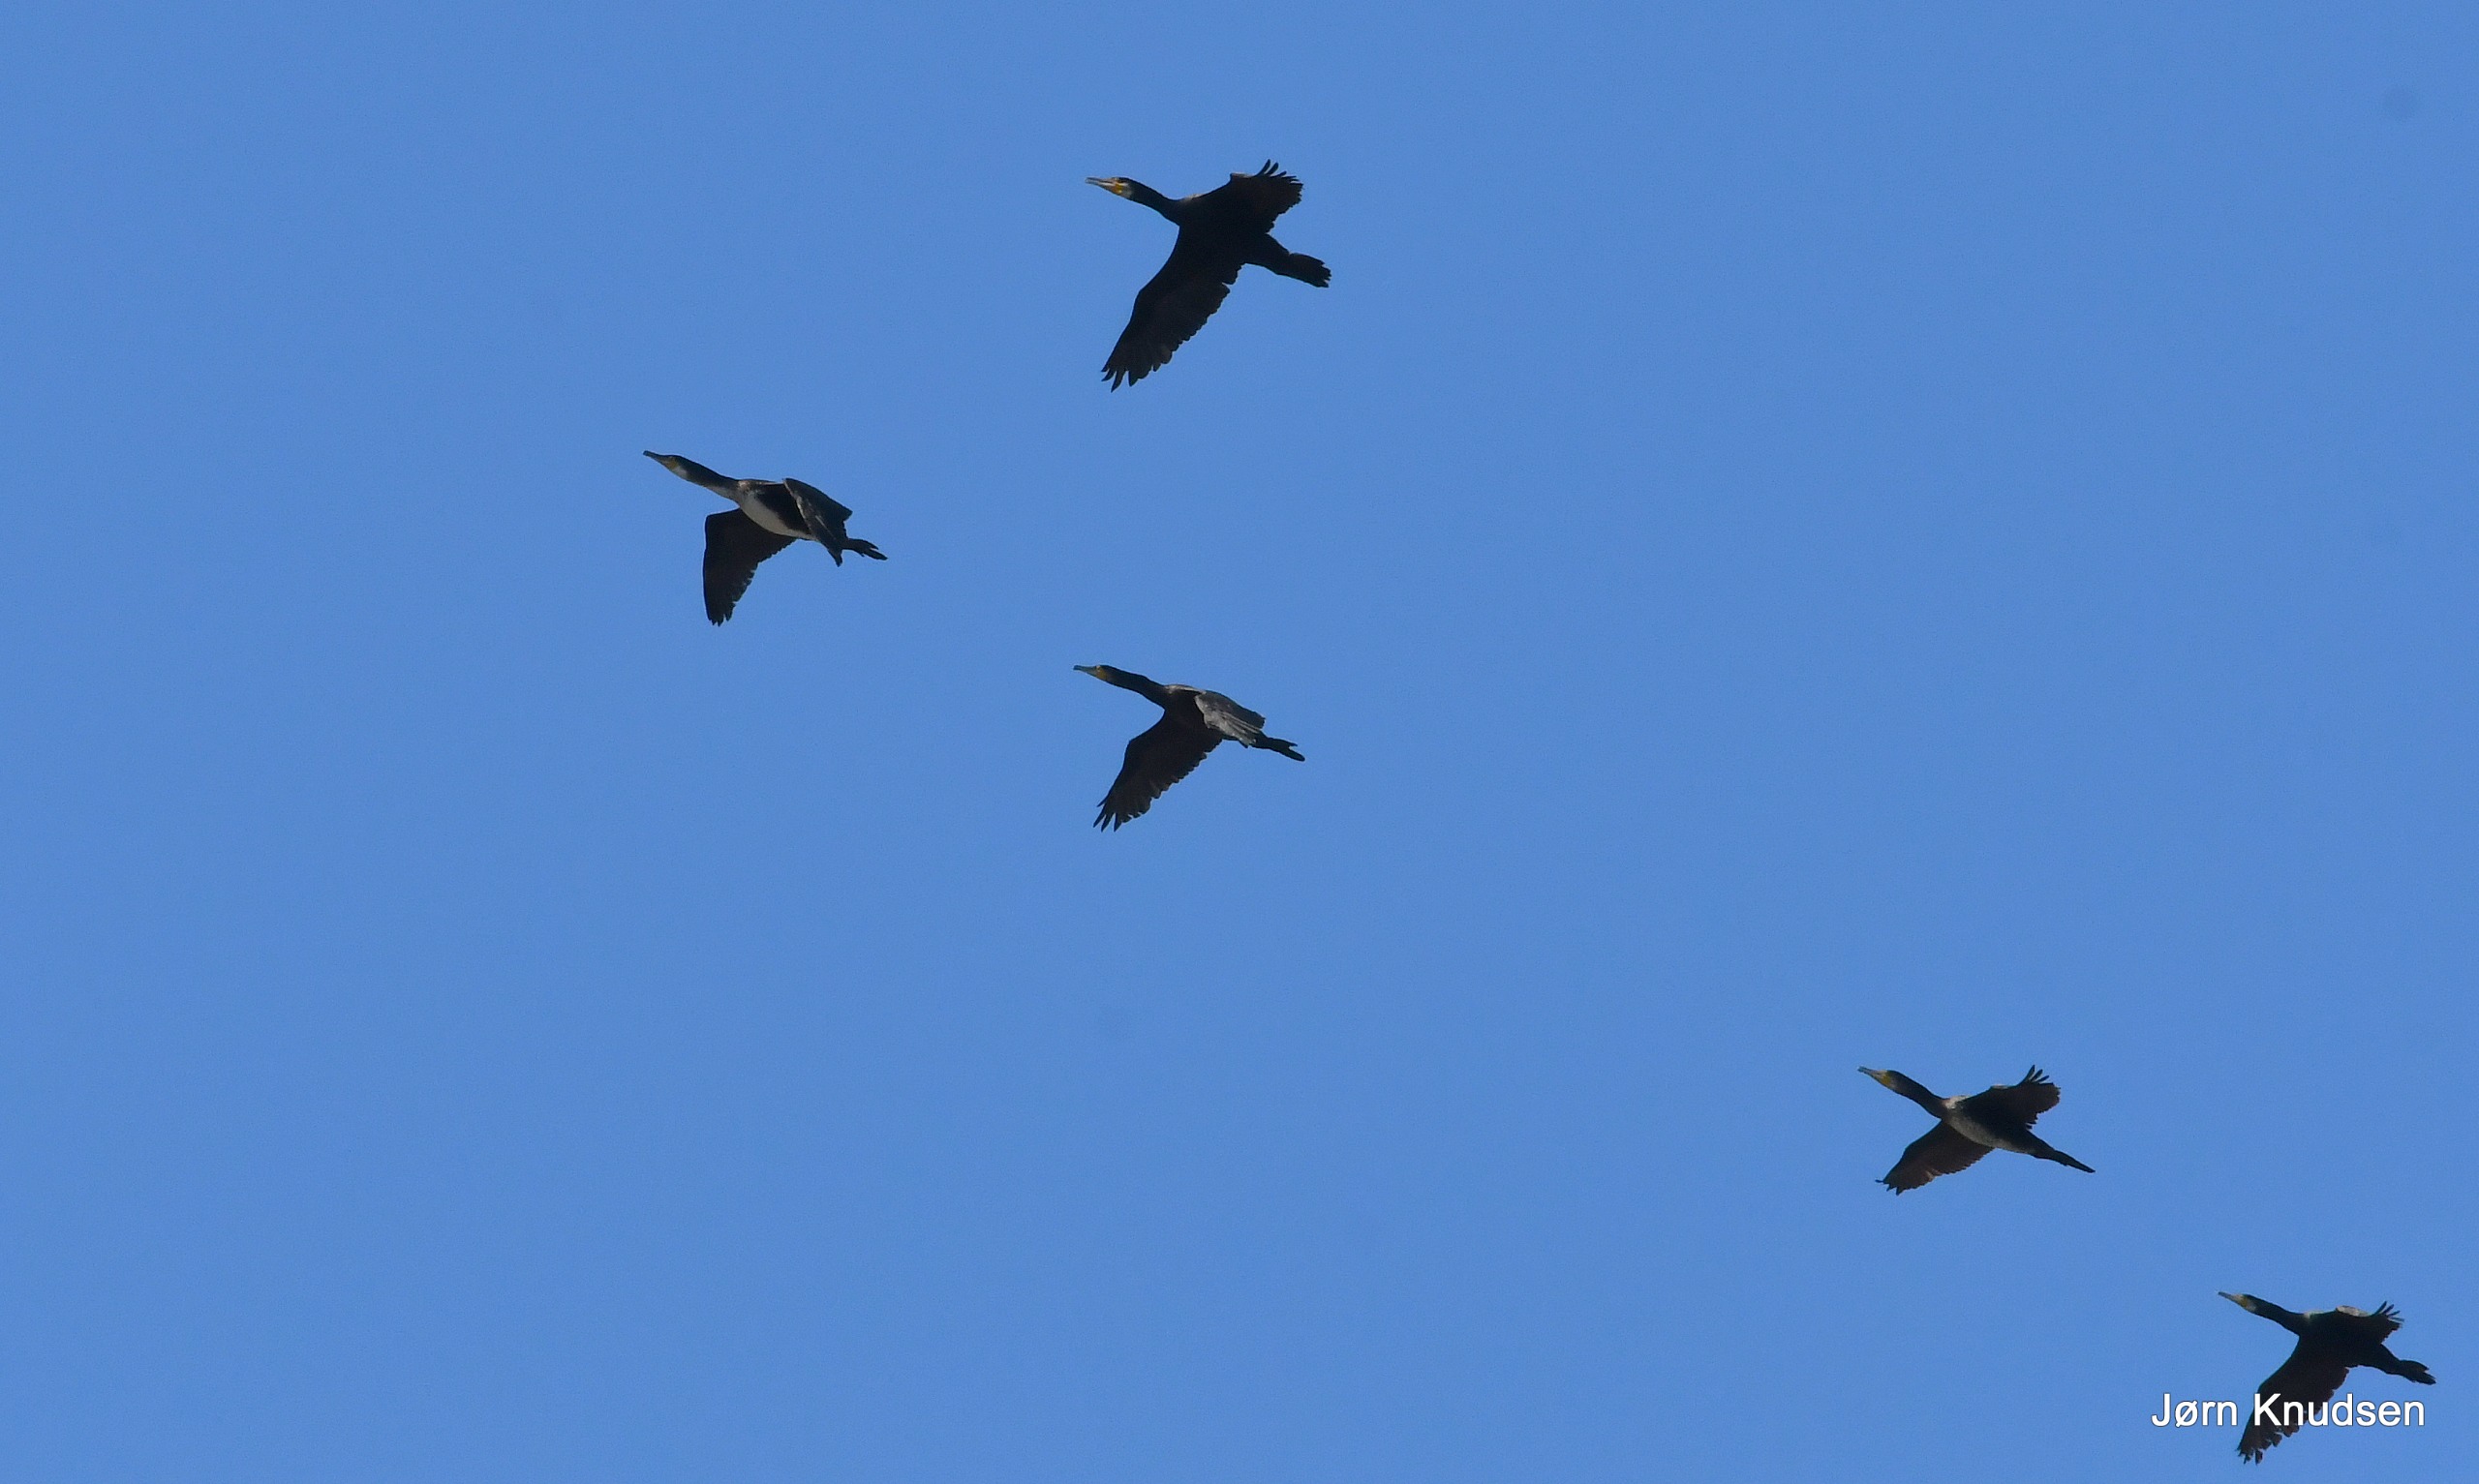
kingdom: Animalia
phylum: Chordata
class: Aves
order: Suliformes
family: Phalacrocoracidae
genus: Phalacrocorax
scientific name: Phalacrocorax carbo
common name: Skarv
